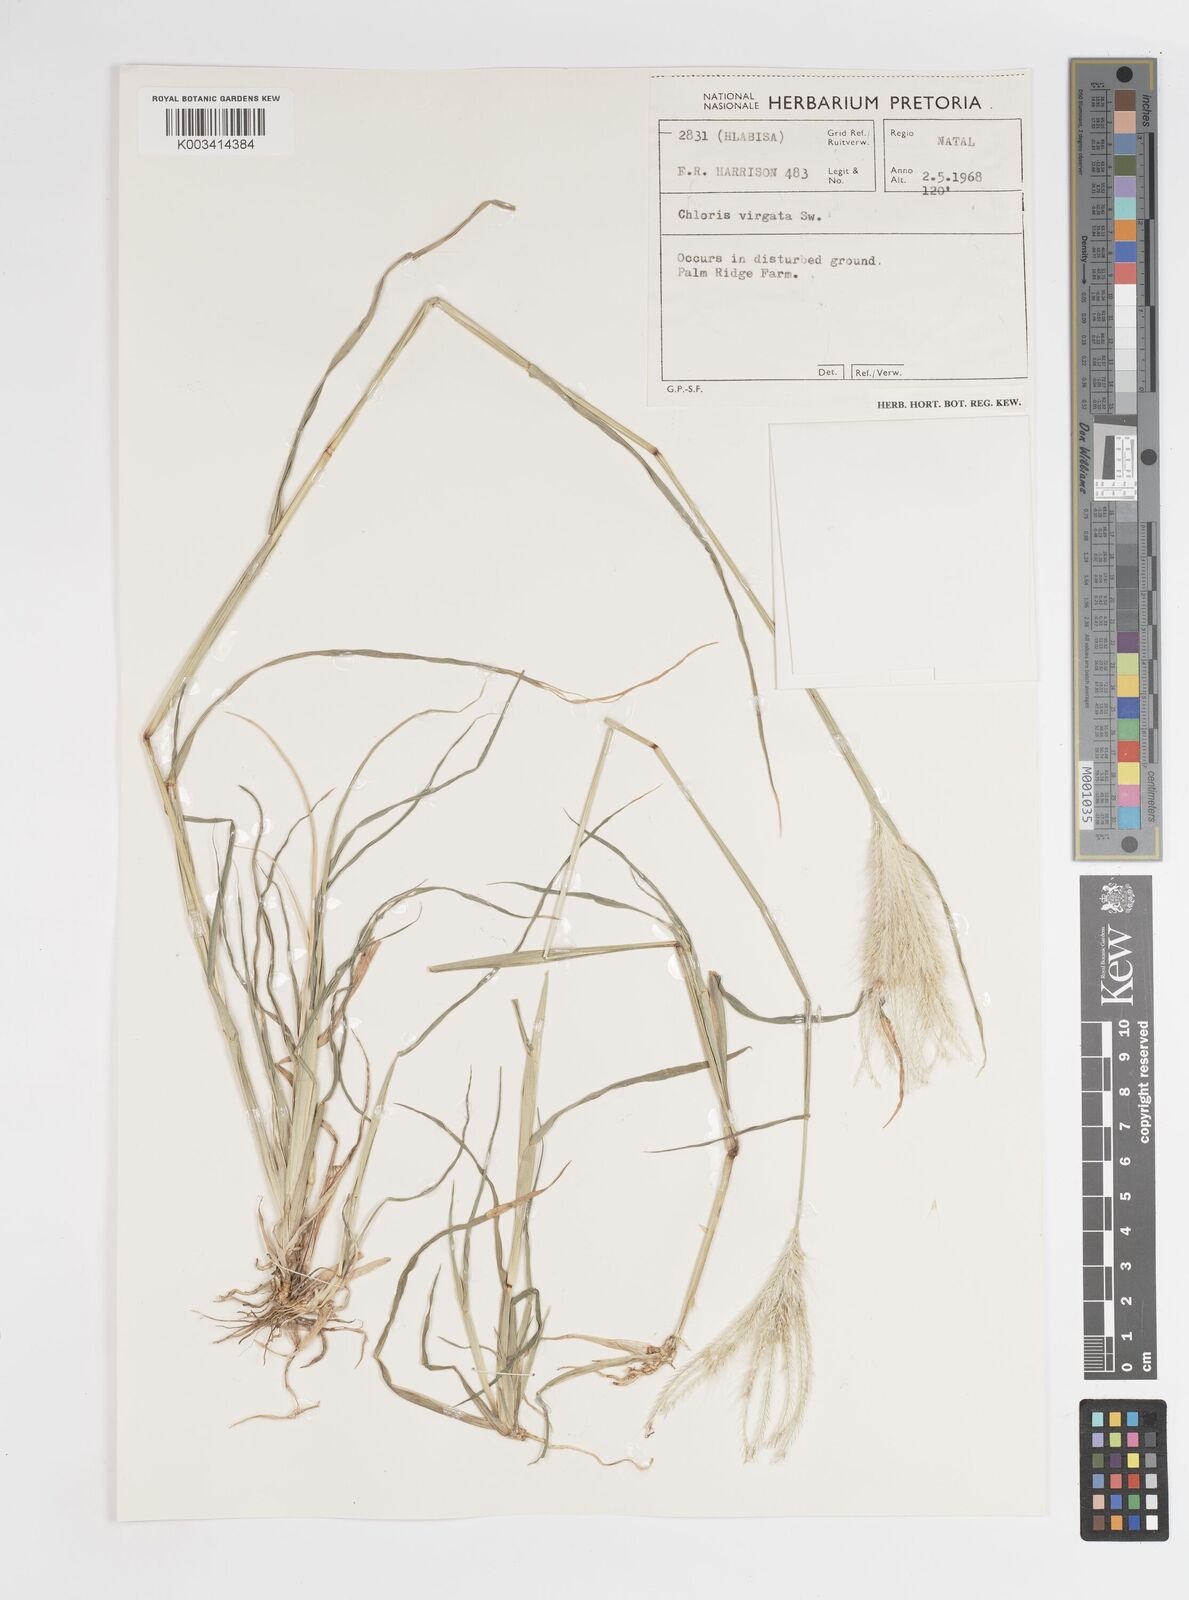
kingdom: Plantae
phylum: Tracheophyta
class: Liliopsida
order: Poales
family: Poaceae
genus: Chloris
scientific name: Chloris virgata
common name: Feathery rhodes-grass
